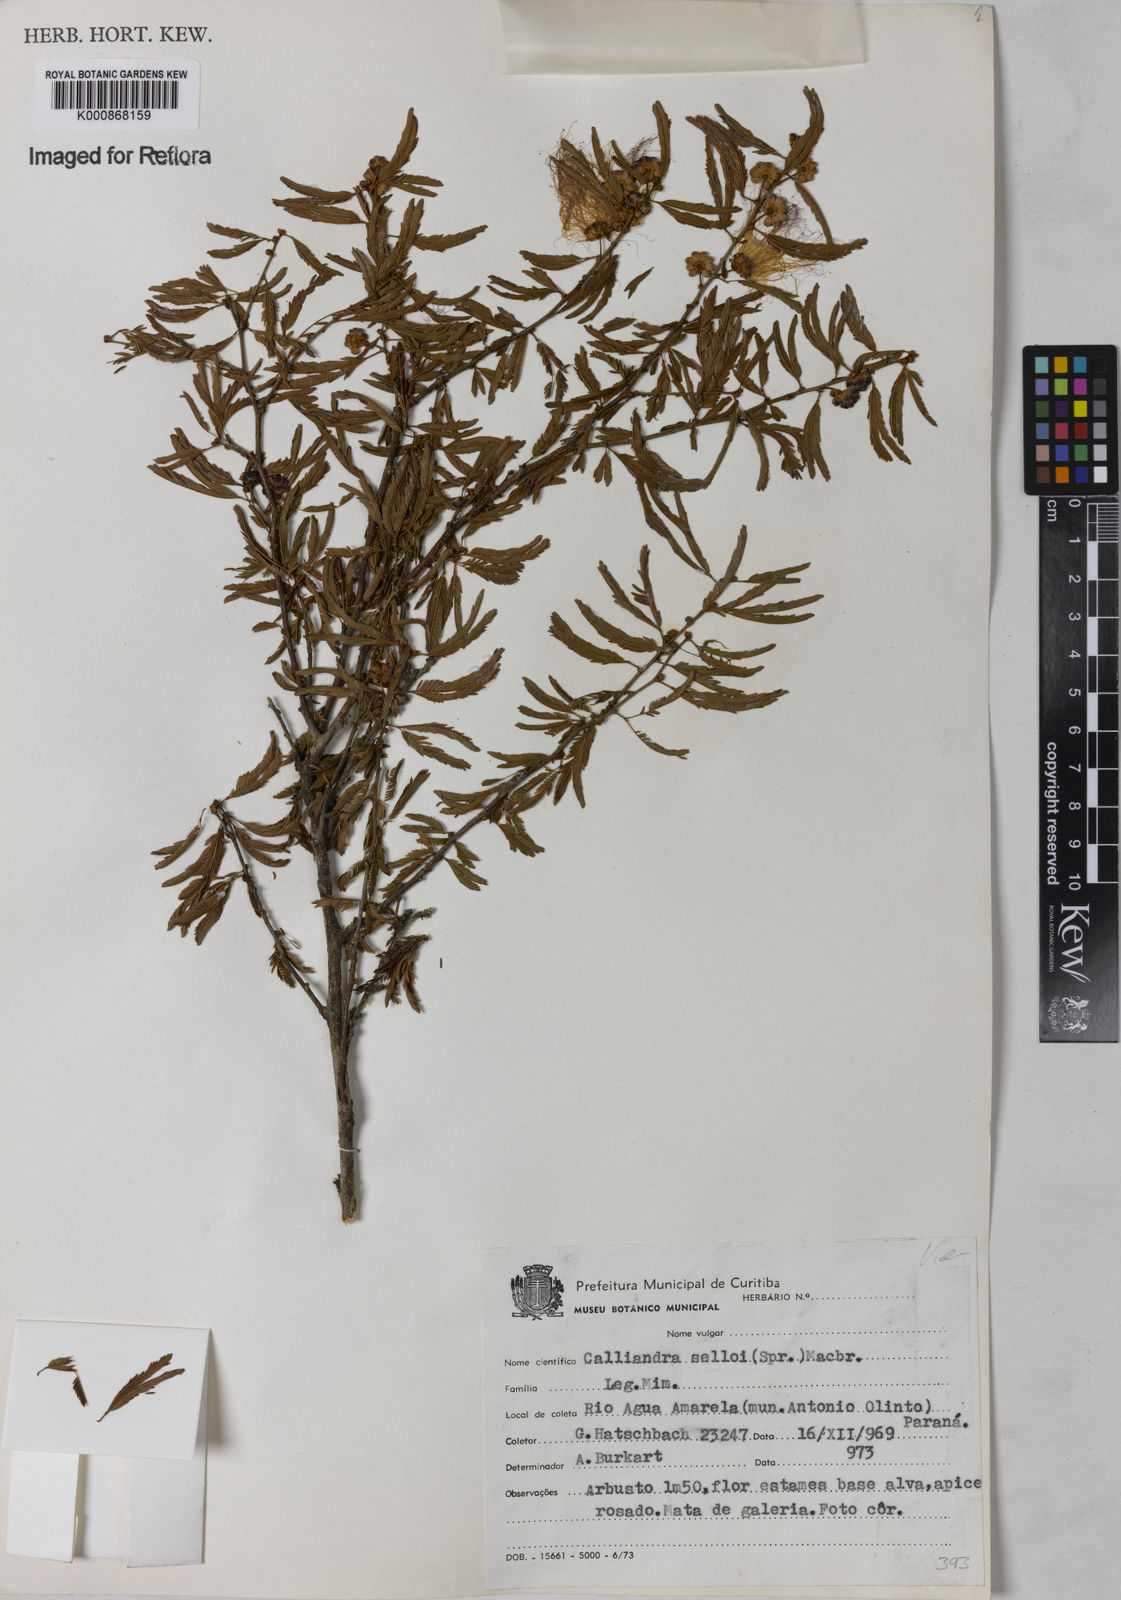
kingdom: Plantae
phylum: Tracheophyta
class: Magnoliopsida
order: Fabales
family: Fabaceae
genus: Calliandra
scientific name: Calliandra selloi
